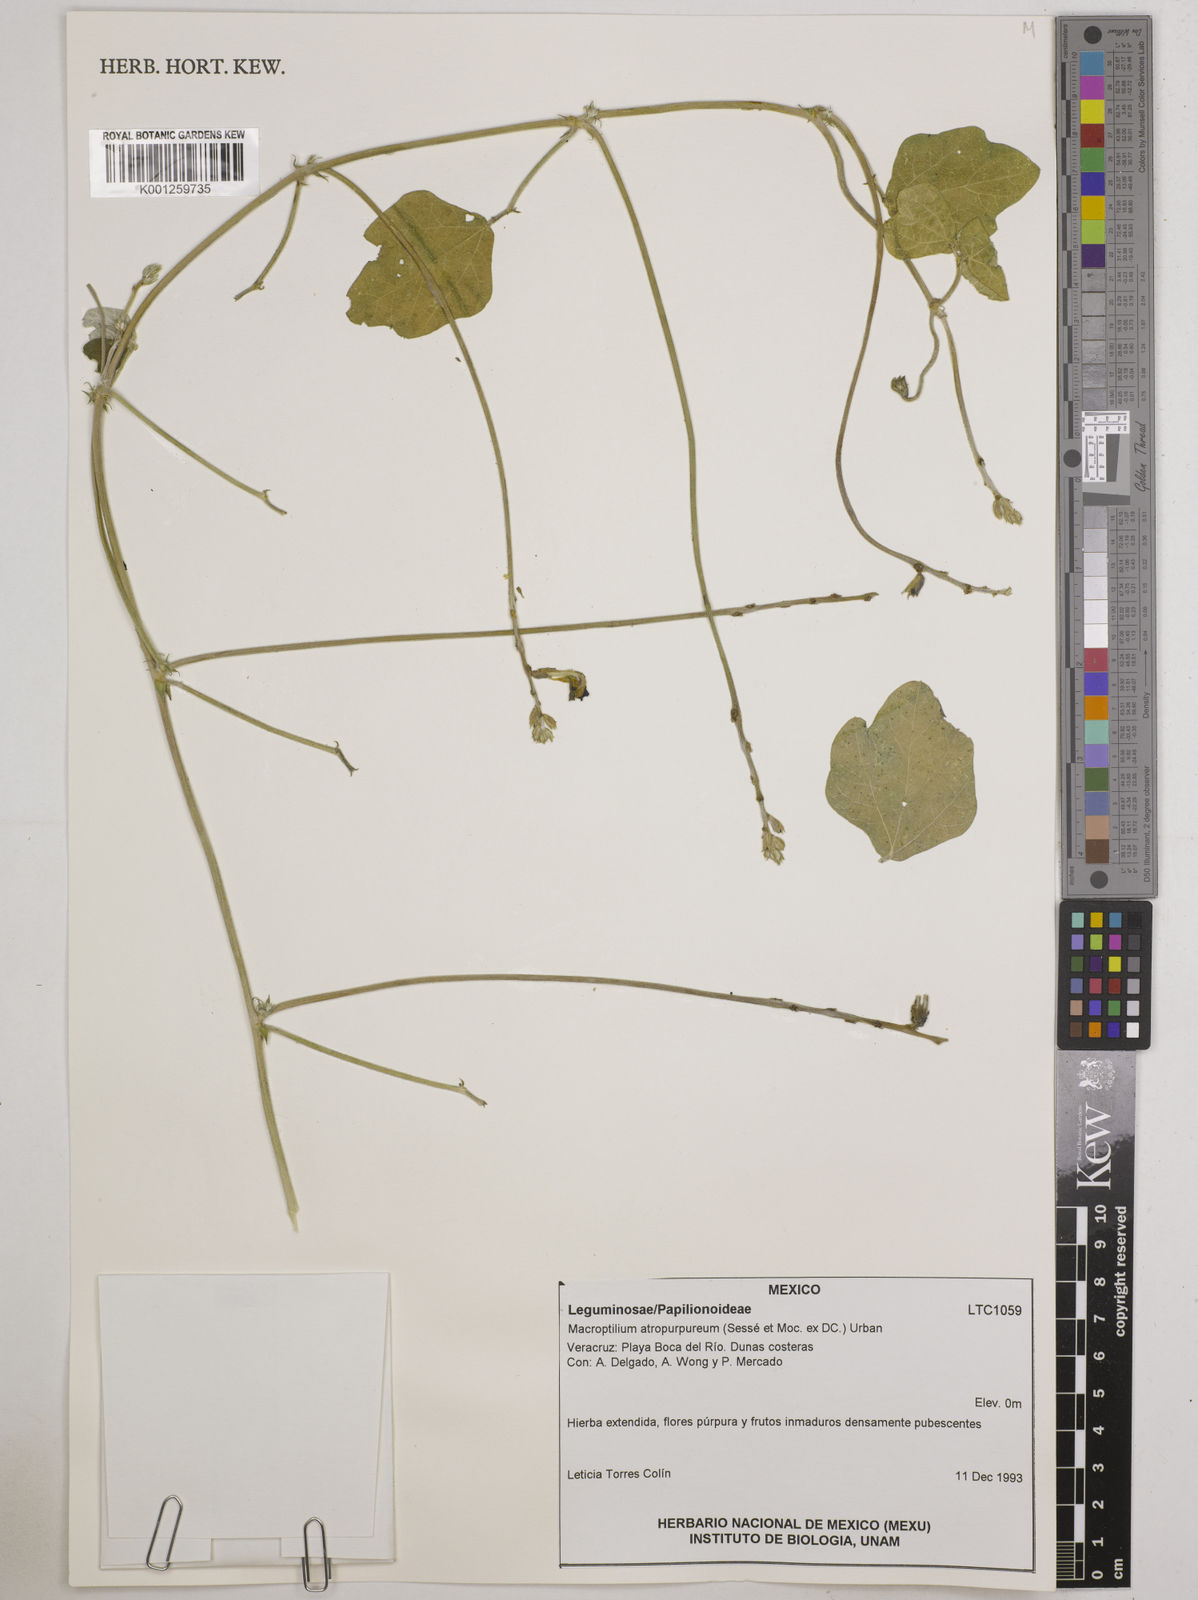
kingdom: Plantae
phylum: Tracheophyta
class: Magnoliopsida
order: Fabales
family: Fabaceae
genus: Macroptilium
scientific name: Macroptilium atropurpureum
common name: Purple bushbean
